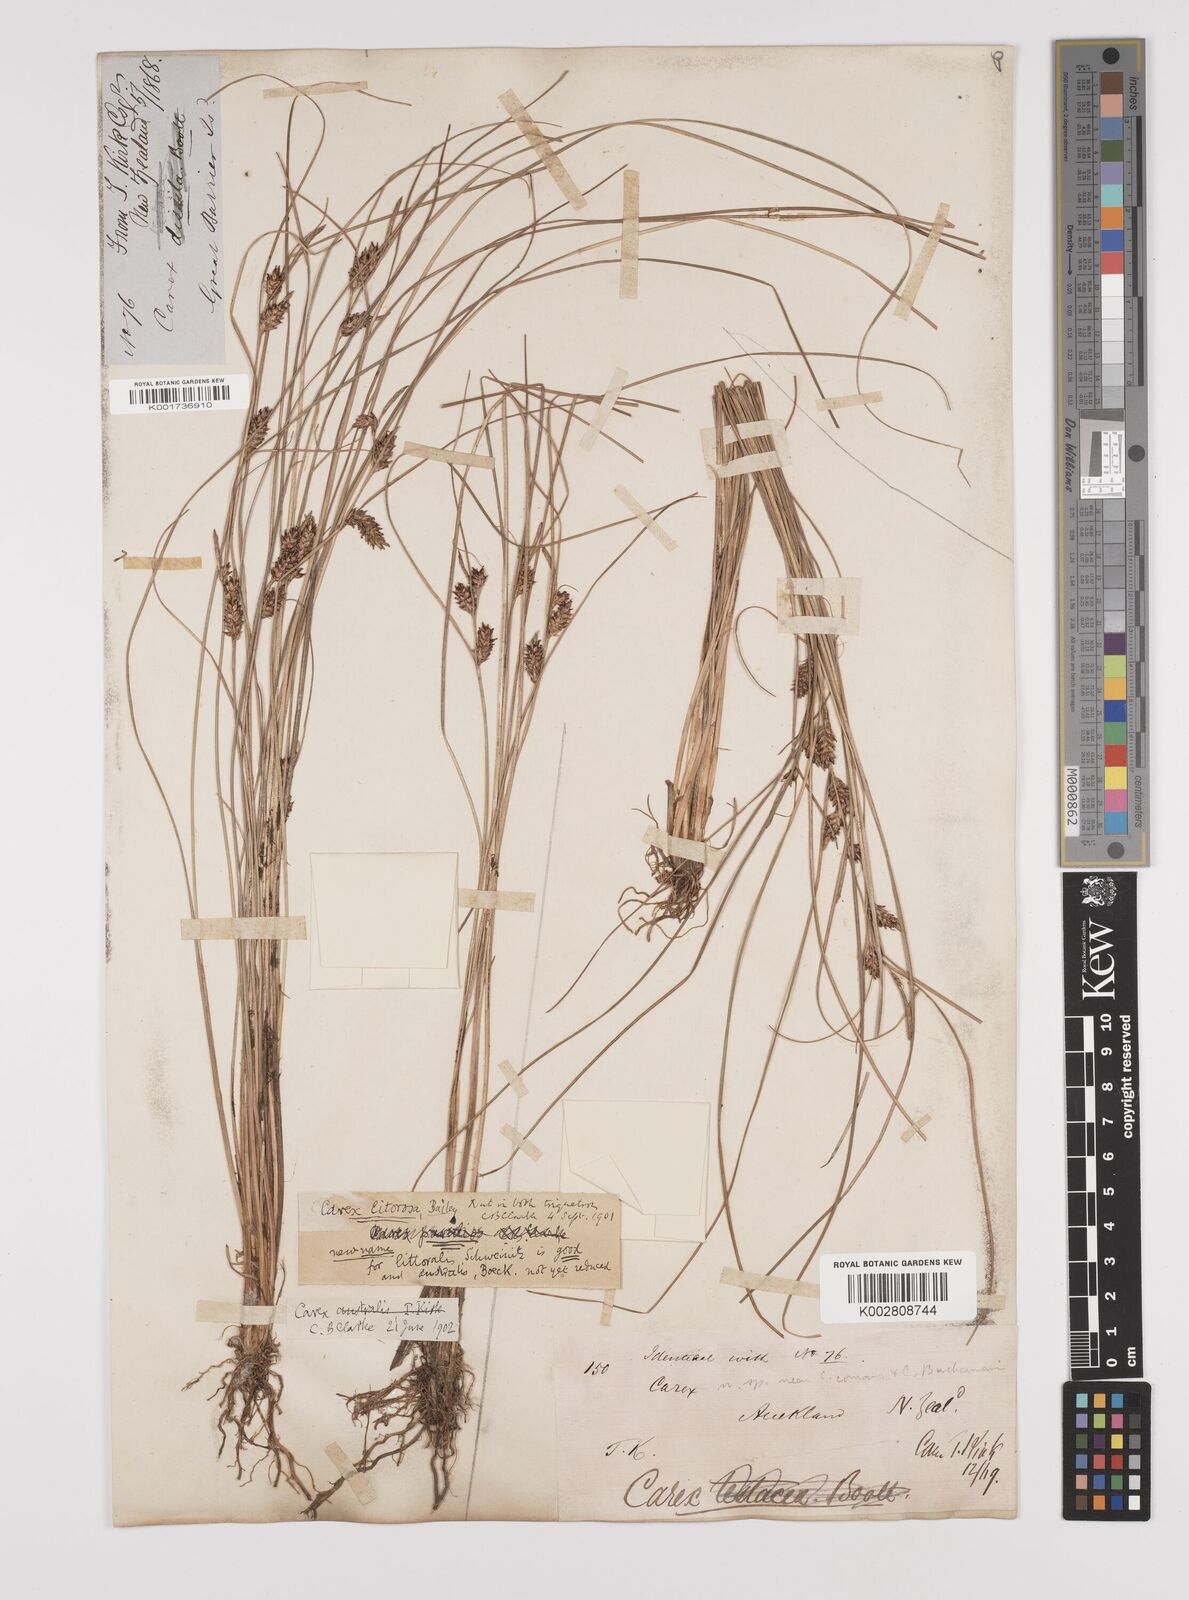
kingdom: Plantae
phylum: Tracheophyta
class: Liliopsida
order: Poales
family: Cyperaceae
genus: Carex
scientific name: Carex litorosa
